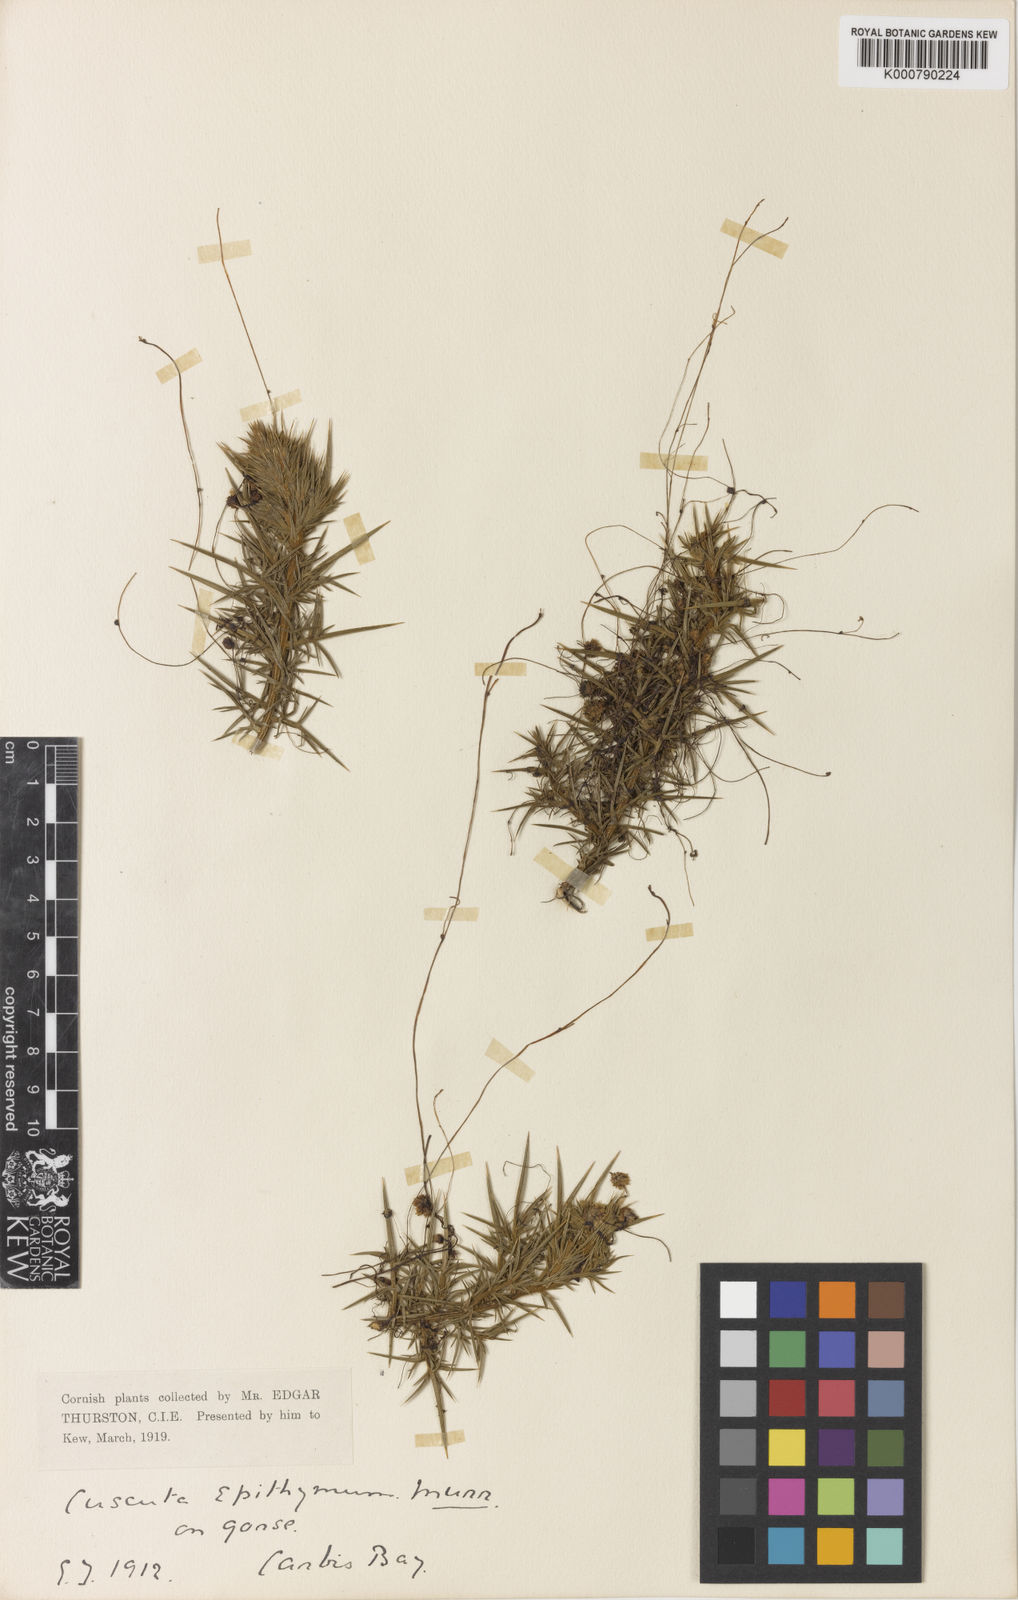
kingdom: Plantae
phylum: Tracheophyta
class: Magnoliopsida
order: Solanales
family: Convolvulaceae
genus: Cuscuta
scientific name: Cuscuta epithymum
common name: Clover dodder
